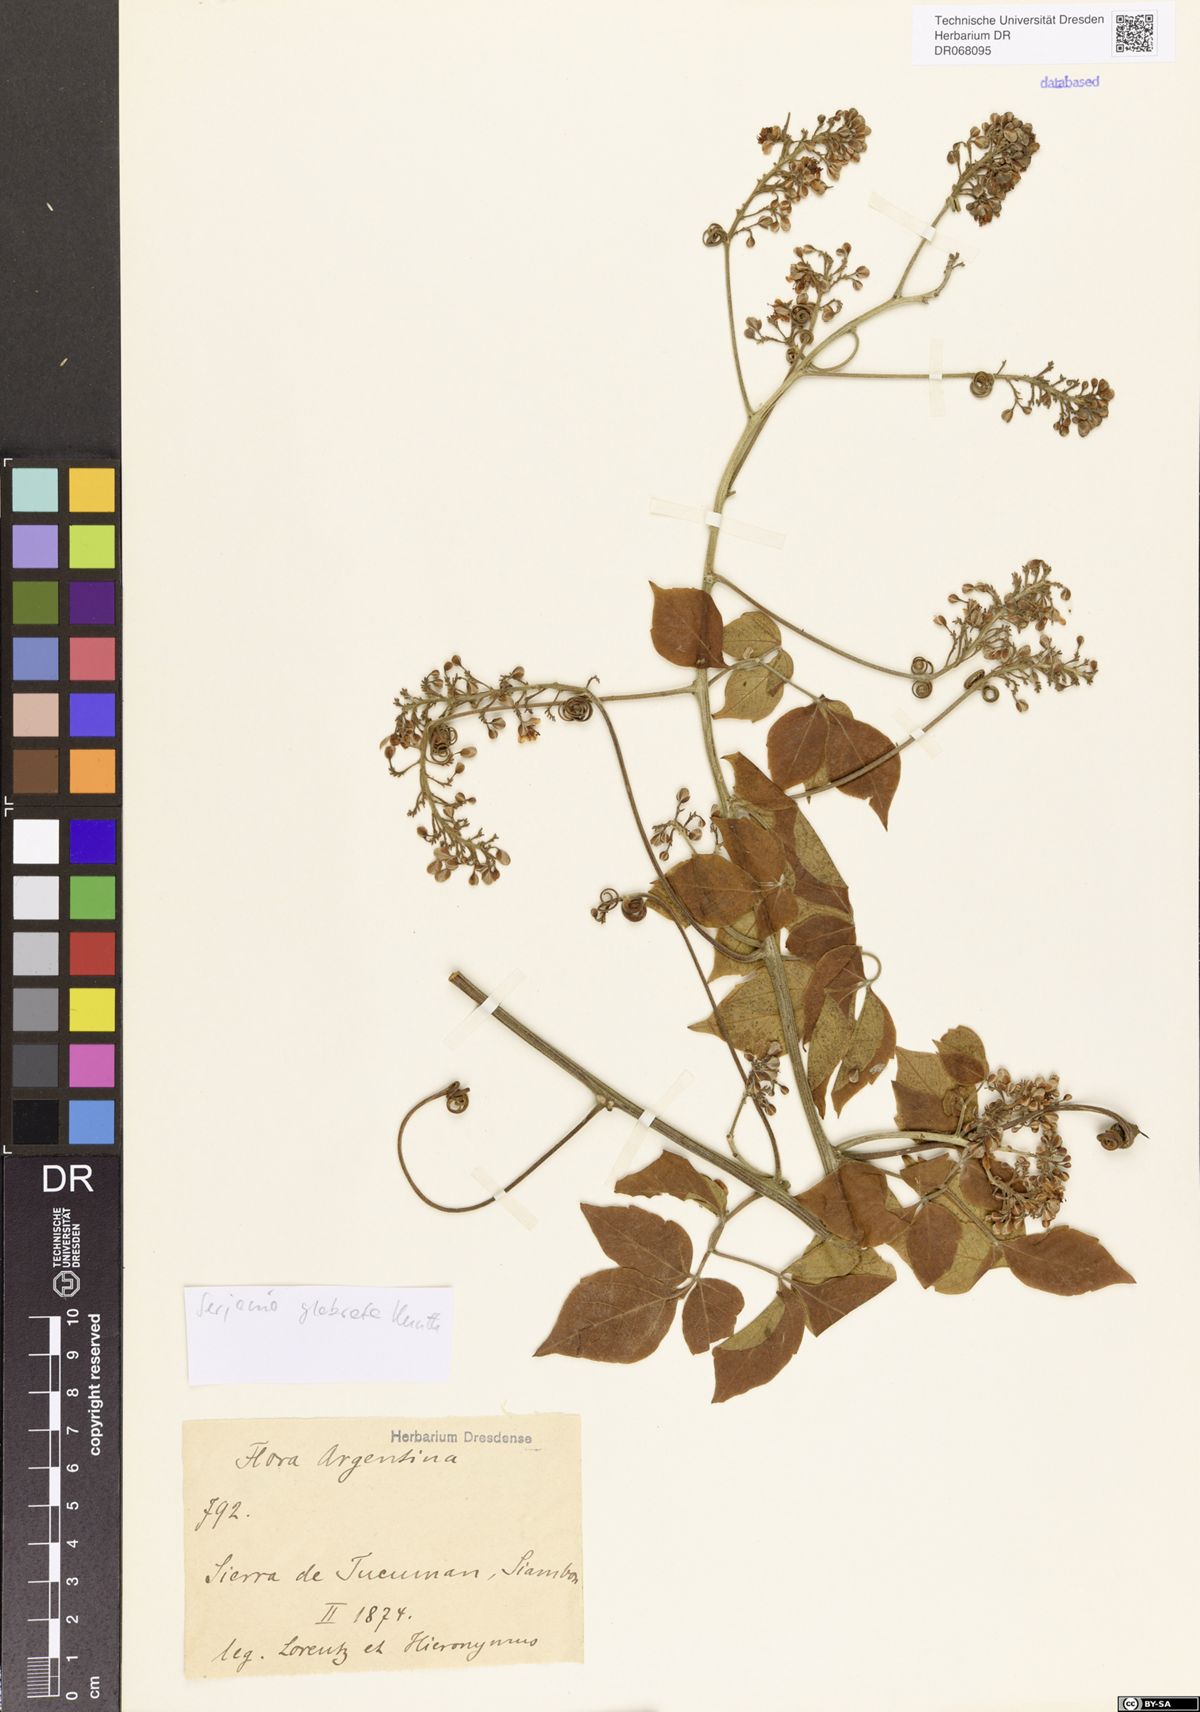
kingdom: Plantae
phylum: Tracheophyta
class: Magnoliopsida
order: Sapindales
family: Sapindaceae
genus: Serjania
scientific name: Serjania glabrata
